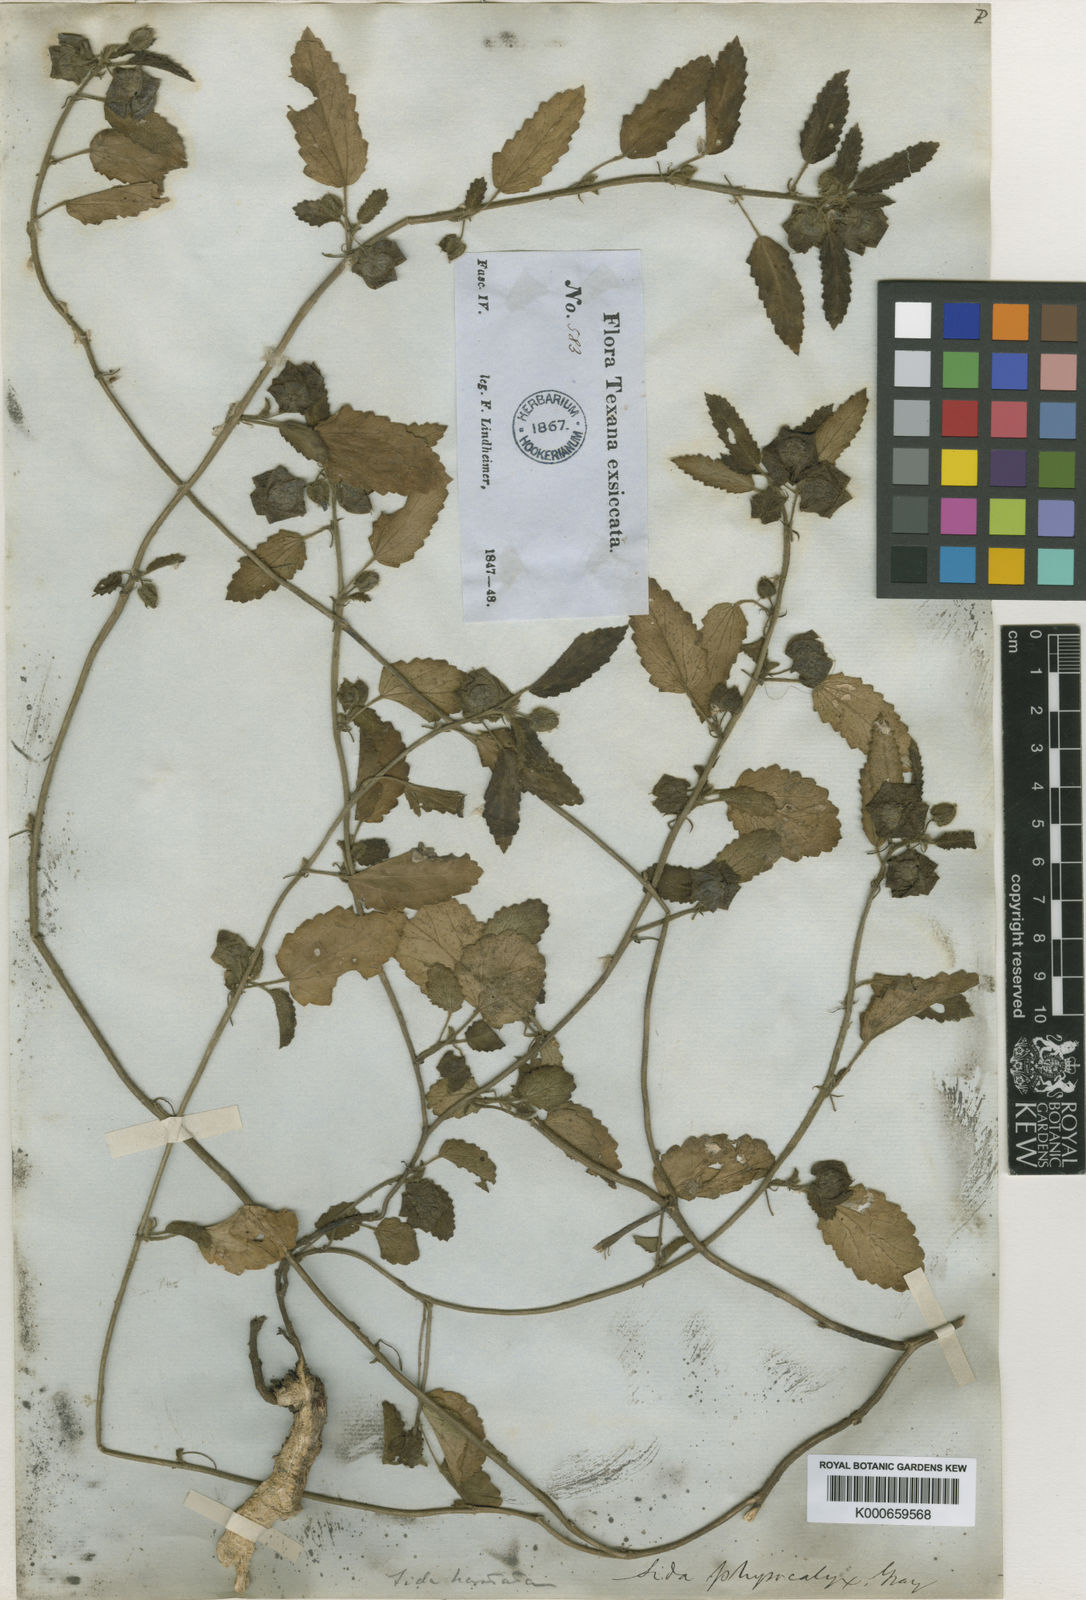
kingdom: Plantae
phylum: Tracheophyta
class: Magnoliopsida
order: Malvales
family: Malvaceae
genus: Rhynchosida
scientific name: Rhynchosida physocalyx
